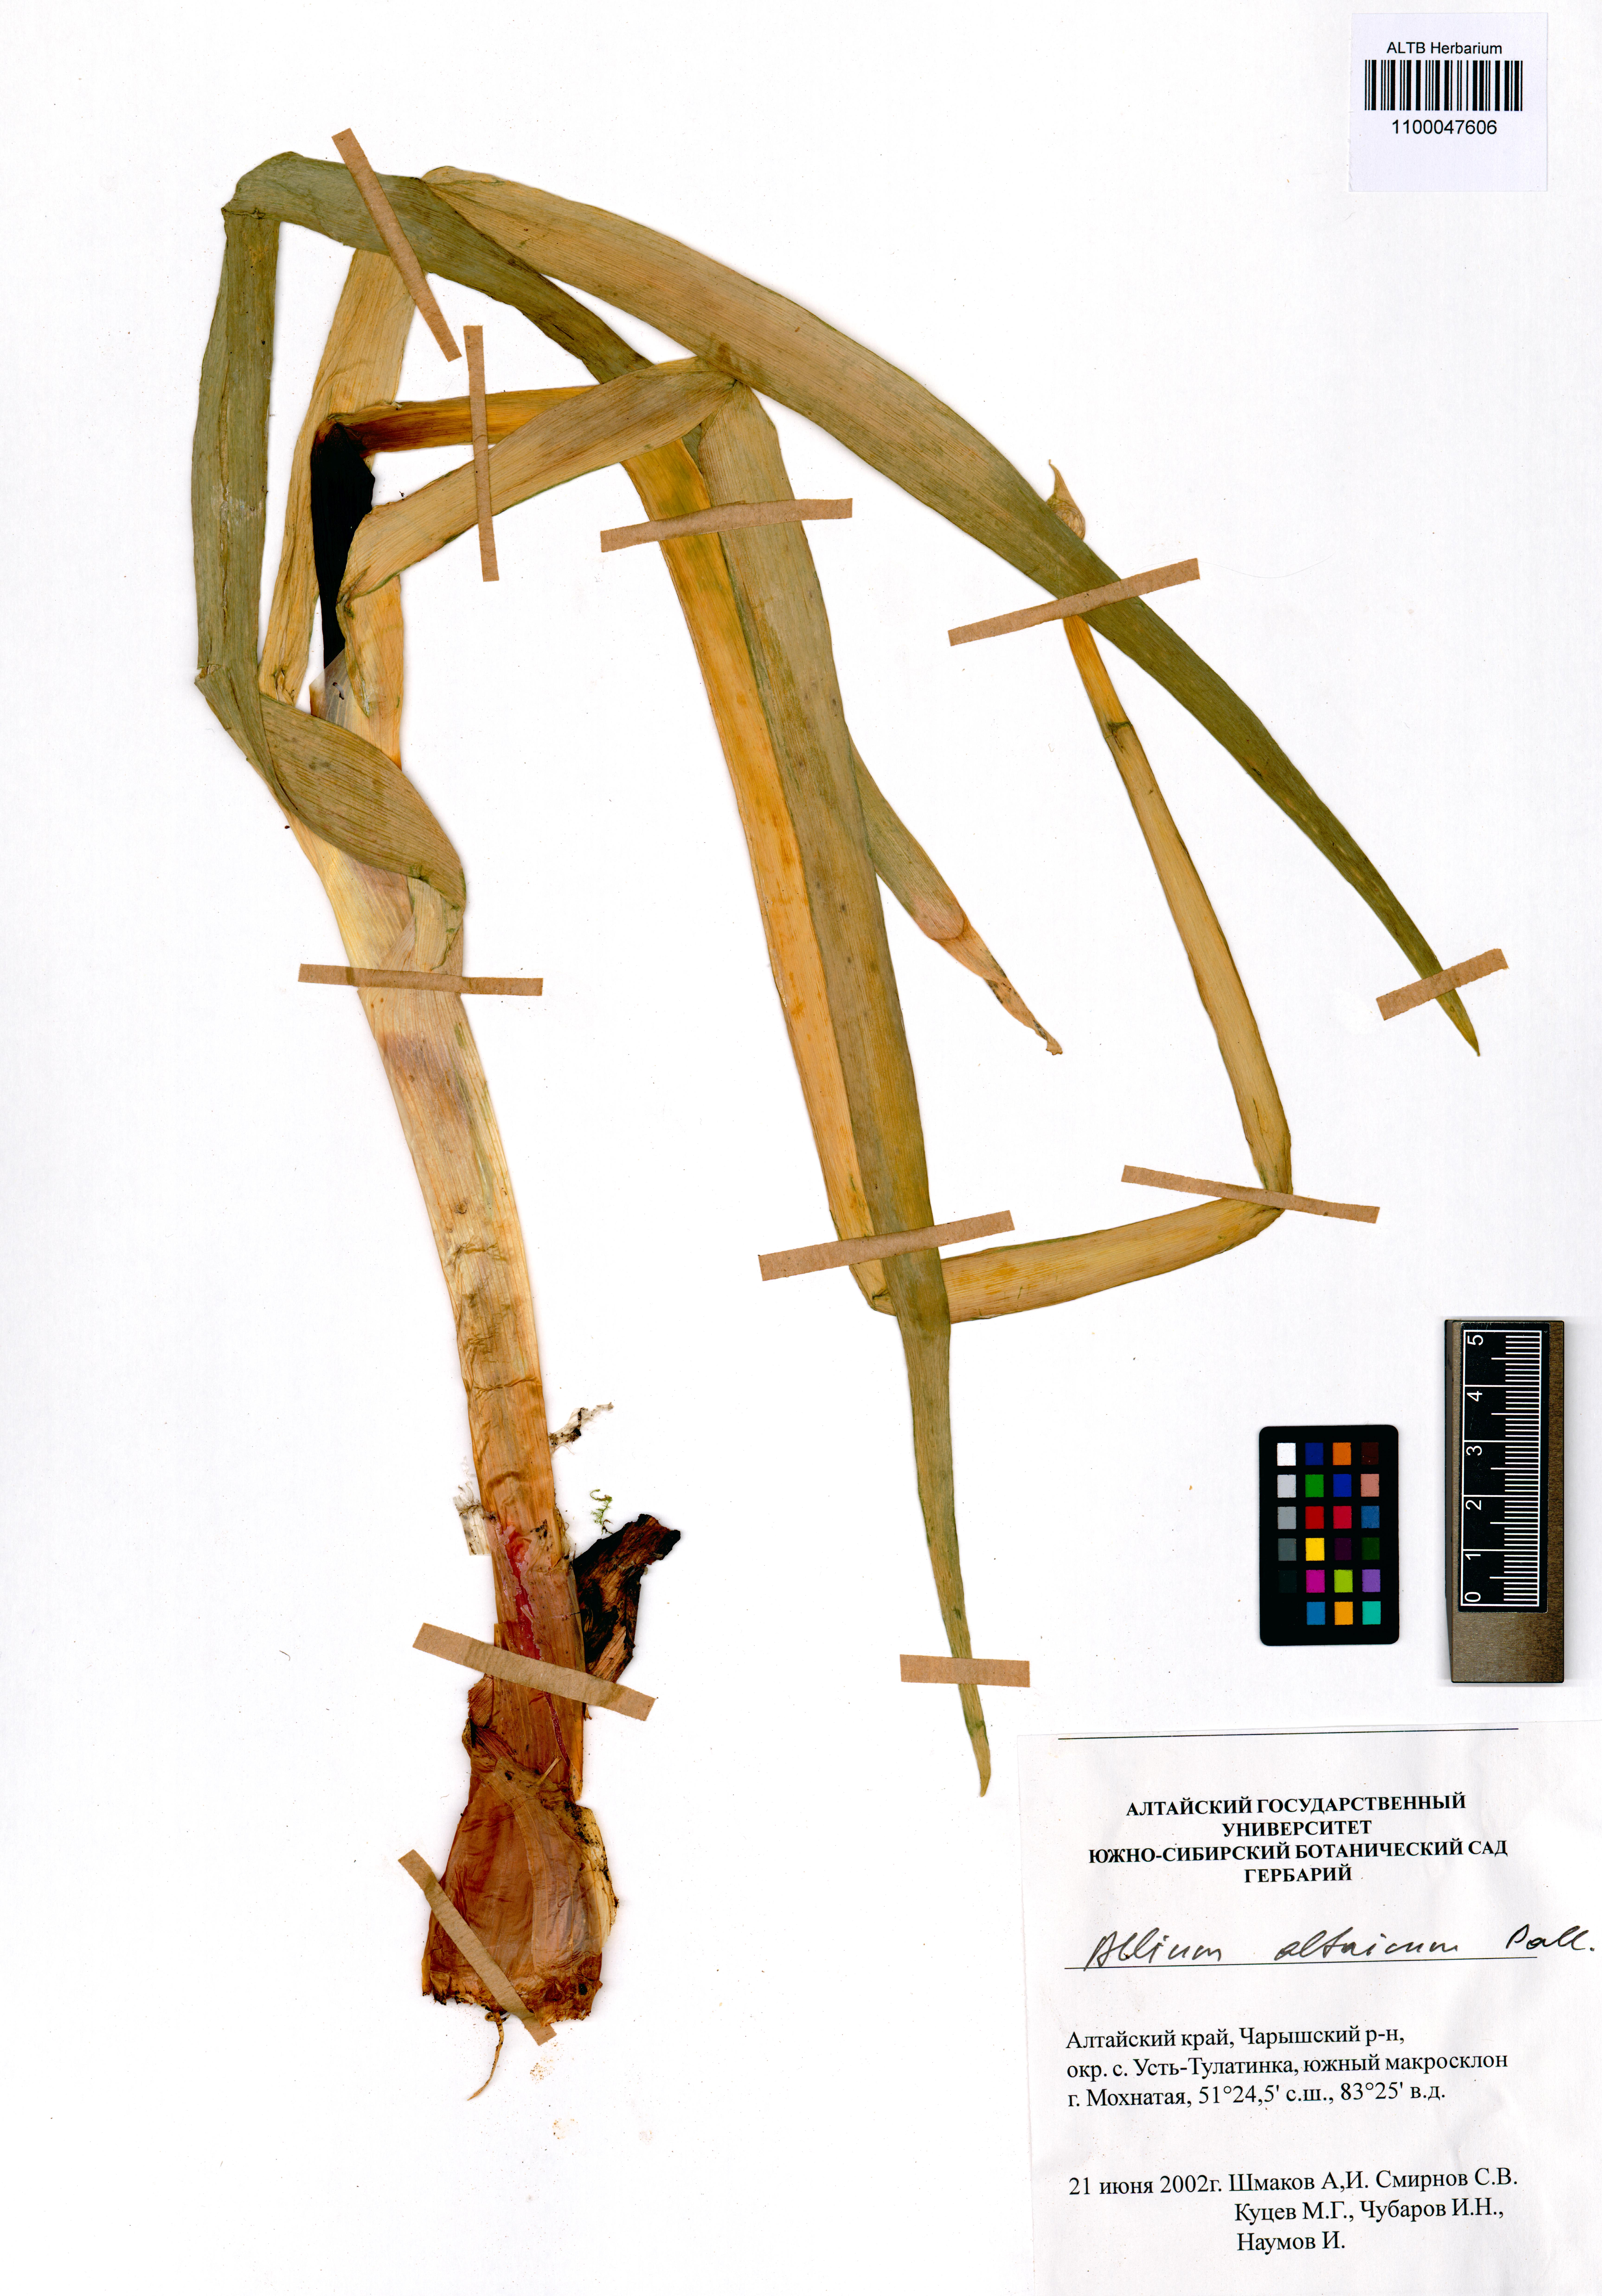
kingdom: Plantae
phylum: Tracheophyta
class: Liliopsida
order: Asparagales
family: Amaryllidaceae
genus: Allium
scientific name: Allium altaicum
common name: Altai onion
